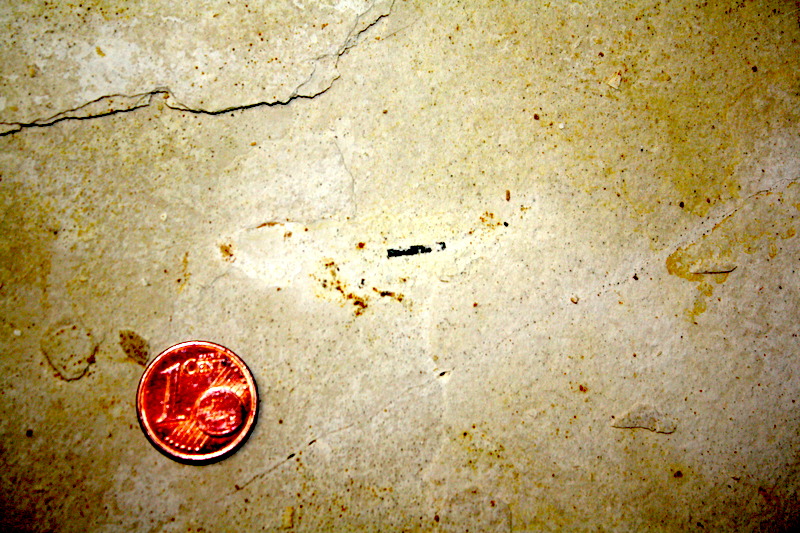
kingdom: Animalia
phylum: Chordata
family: Ascalaboidae
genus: Ebertichthys
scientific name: Ebertichthys ettlingensis
